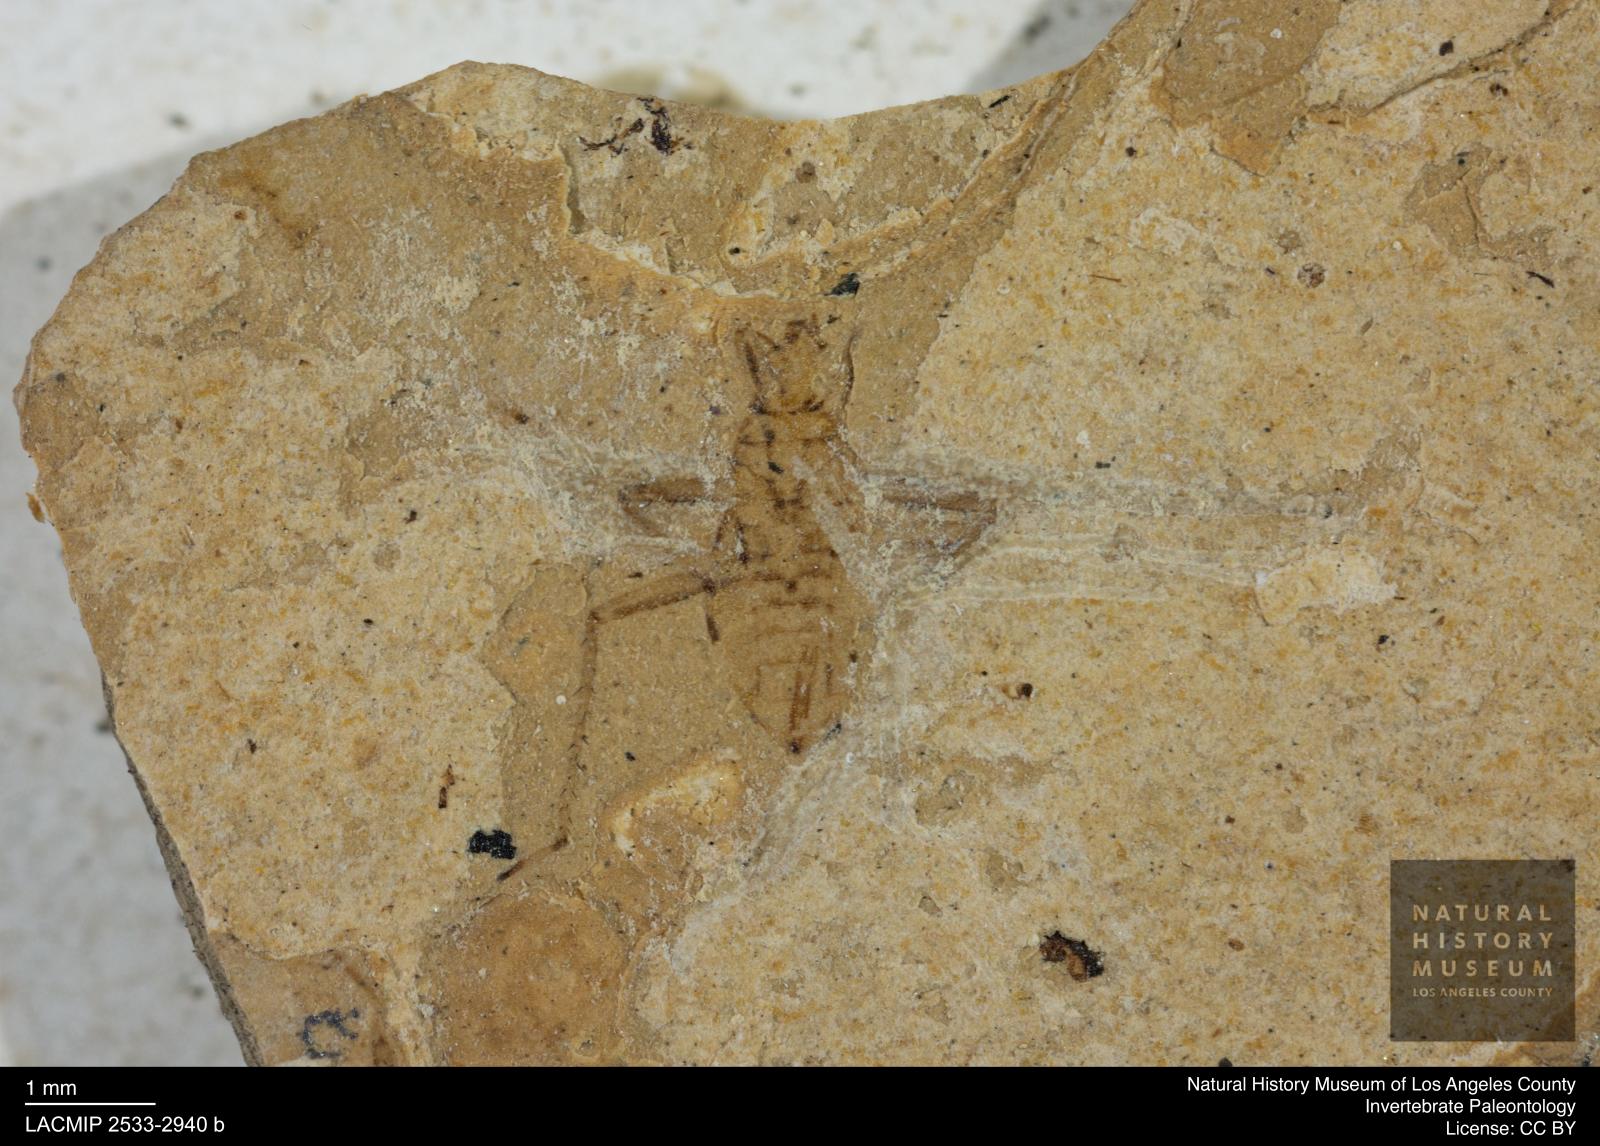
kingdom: Animalia
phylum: Arthropoda
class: Insecta
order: Hemiptera
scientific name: Hemiptera
